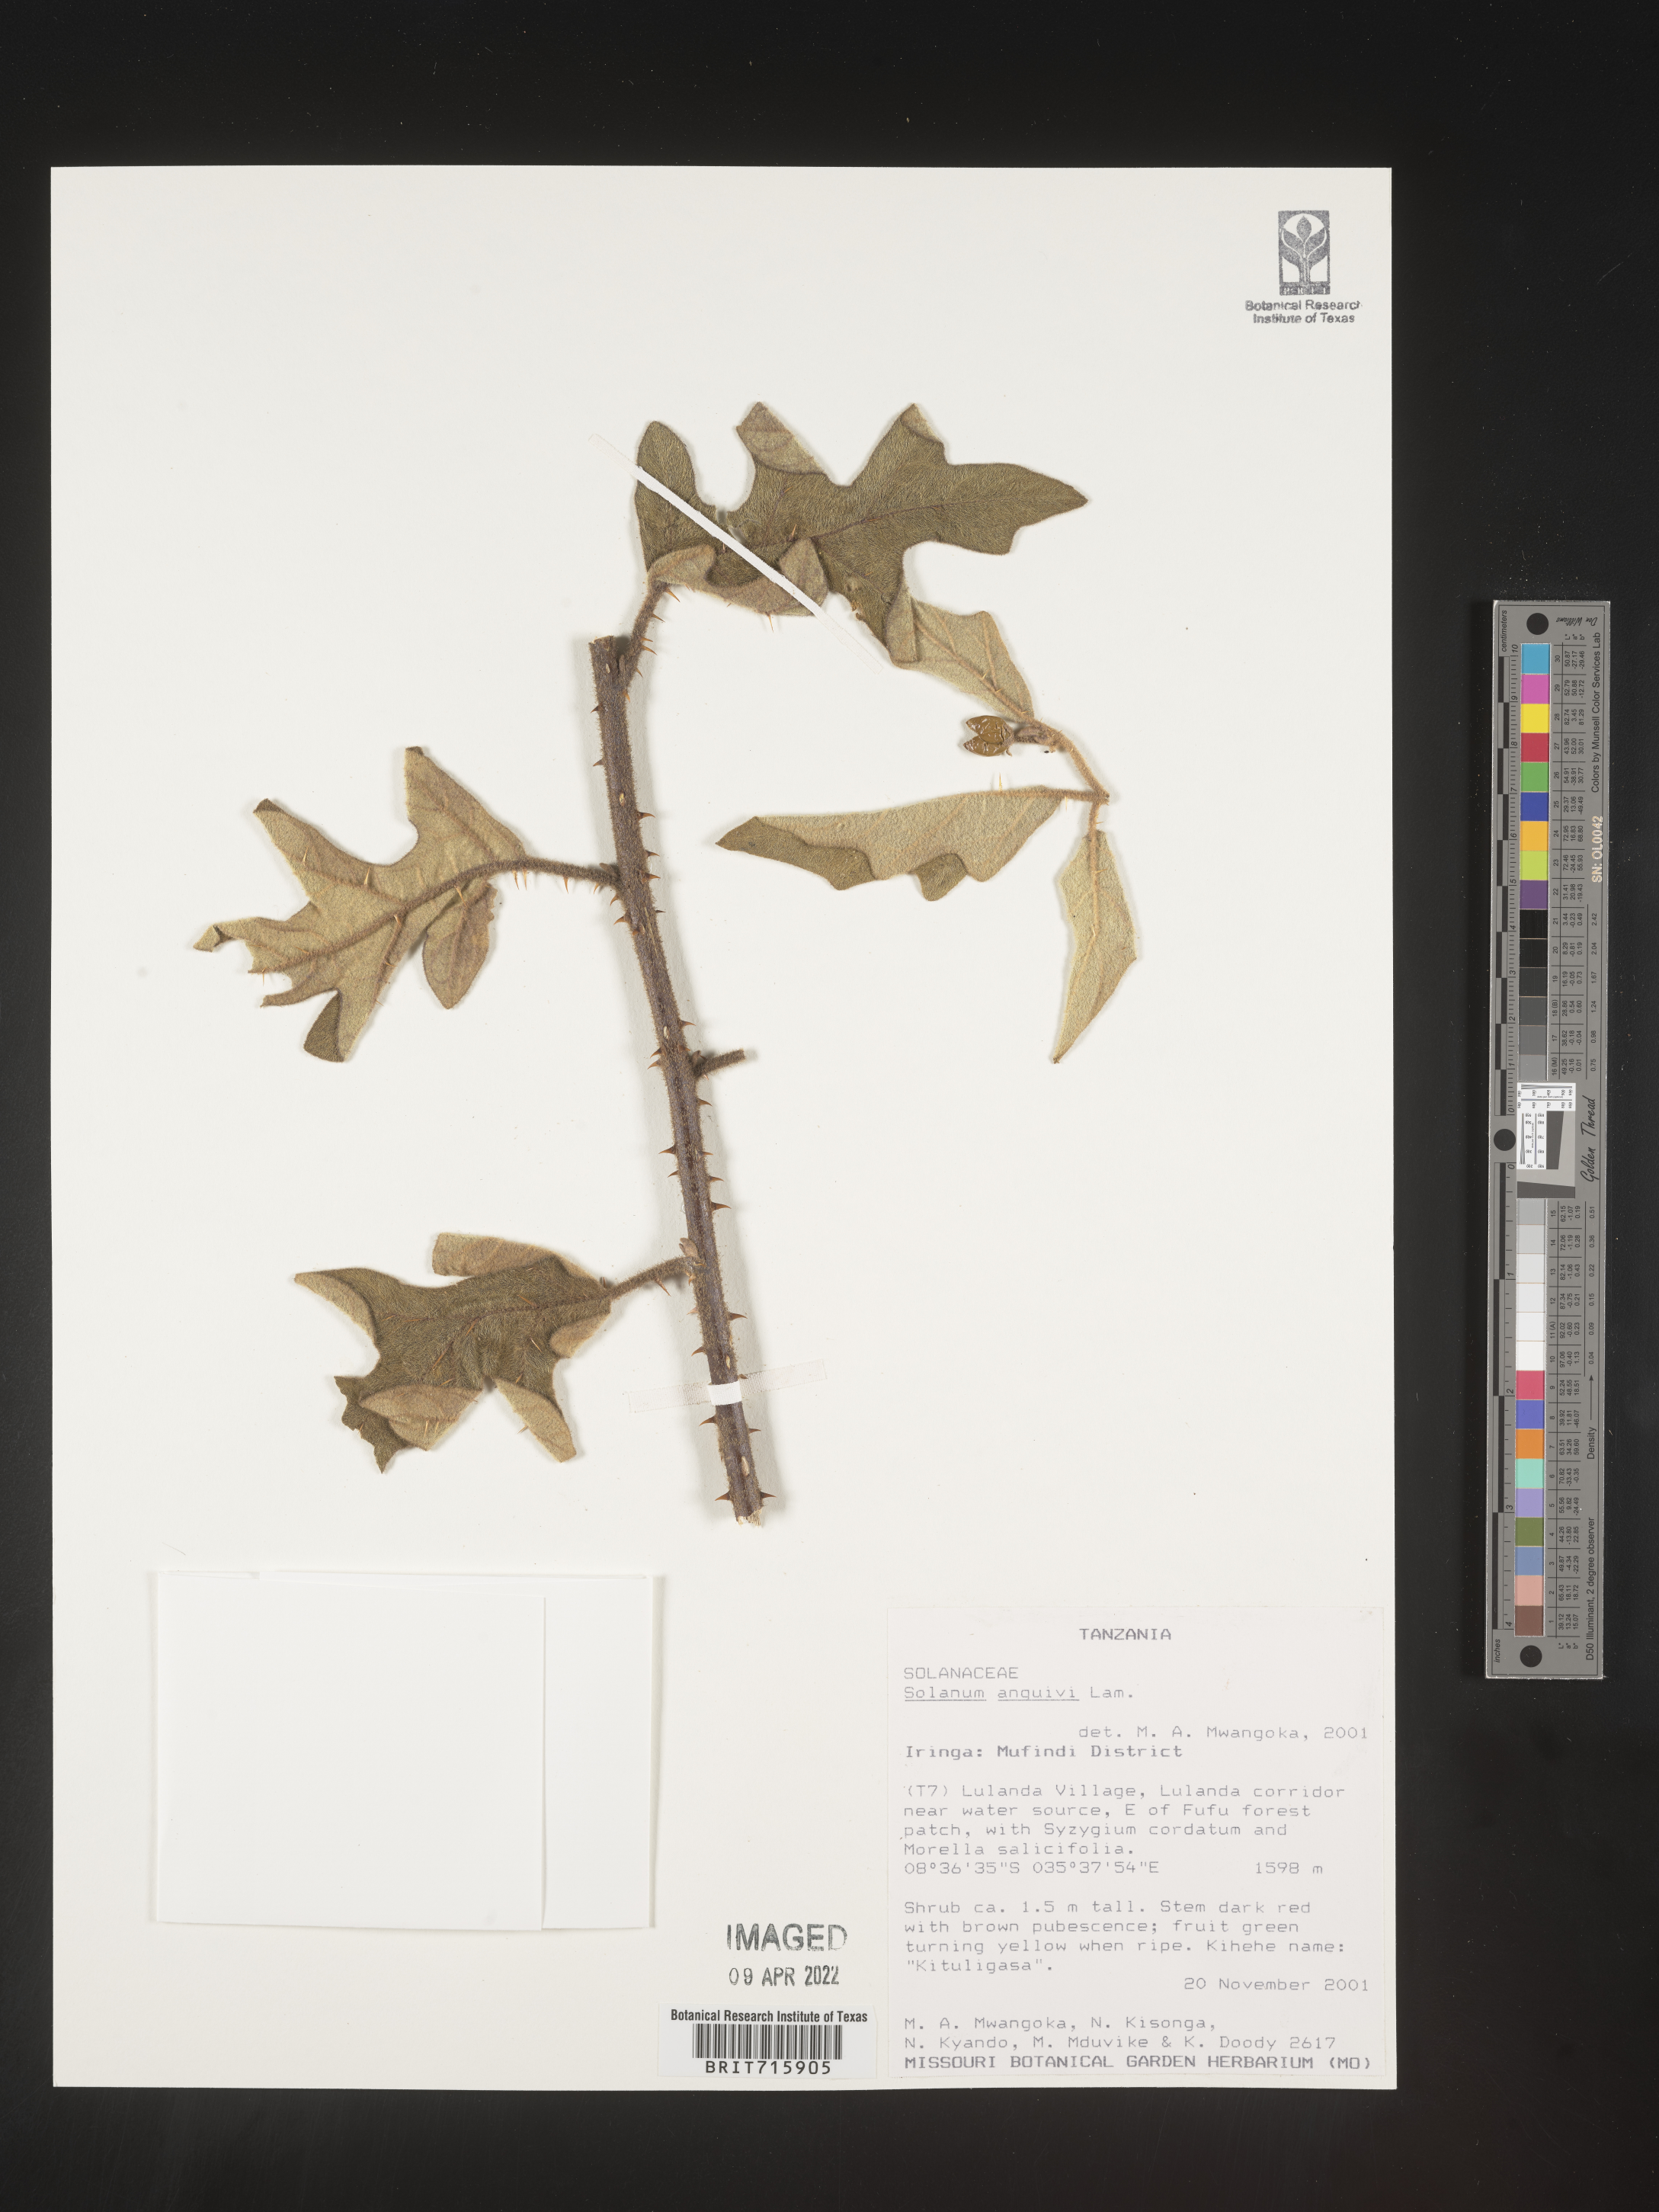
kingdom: Plantae
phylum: Tracheophyta
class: Magnoliopsida
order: Solanales
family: Solanaceae
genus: Solanum
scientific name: Solanum
